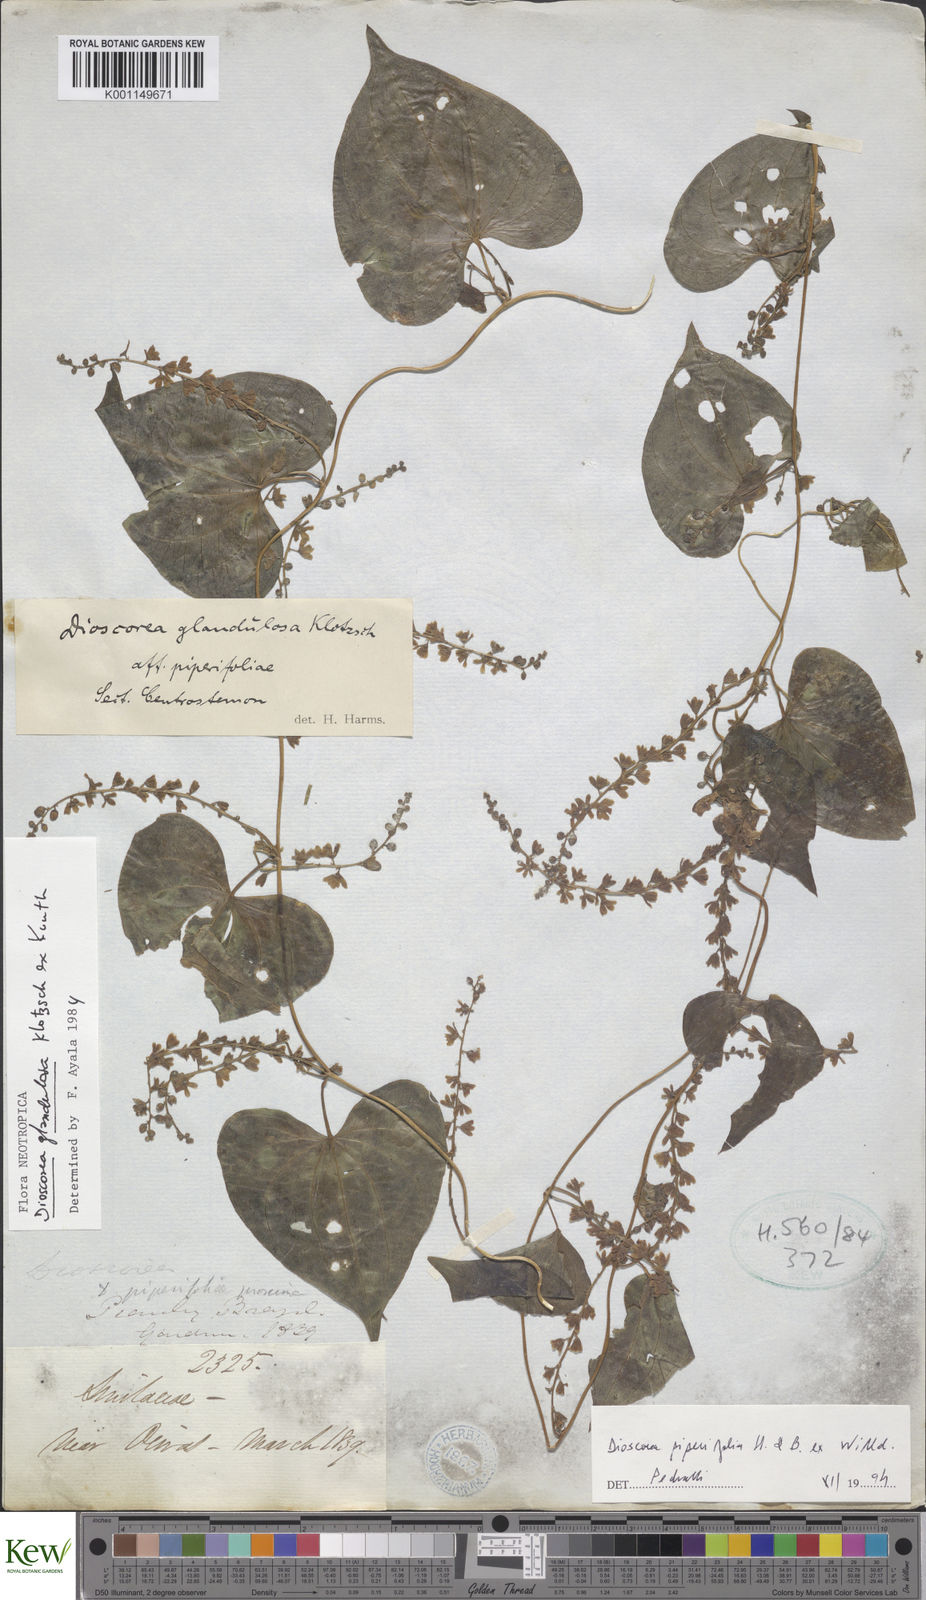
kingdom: Plantae
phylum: Tracheophyta
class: Liliopsida
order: Dioscoreales
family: Dioscoreaceae
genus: Dioscorea
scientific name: Dioscorea glandulosa
